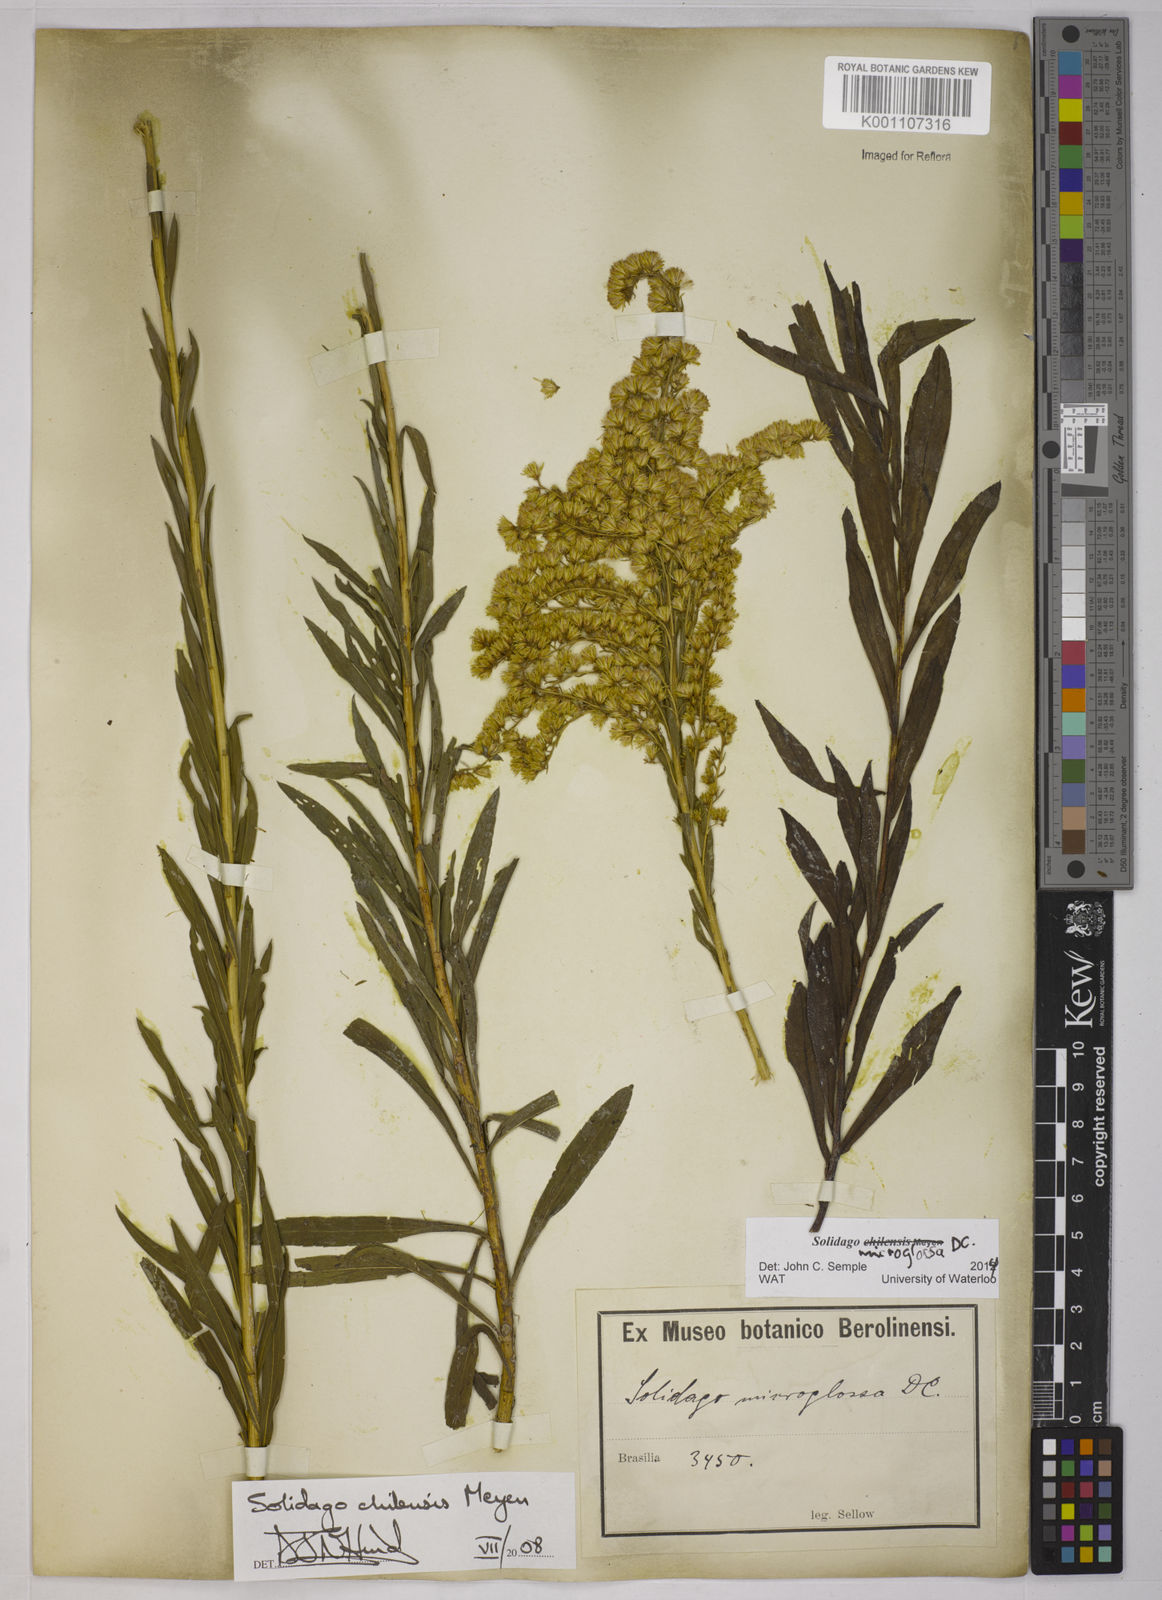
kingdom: Plantae
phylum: Tracheophyta
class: Magnoliopsida
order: Asterales
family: Asteraceae
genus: Solidago
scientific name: Solidago chilensis
